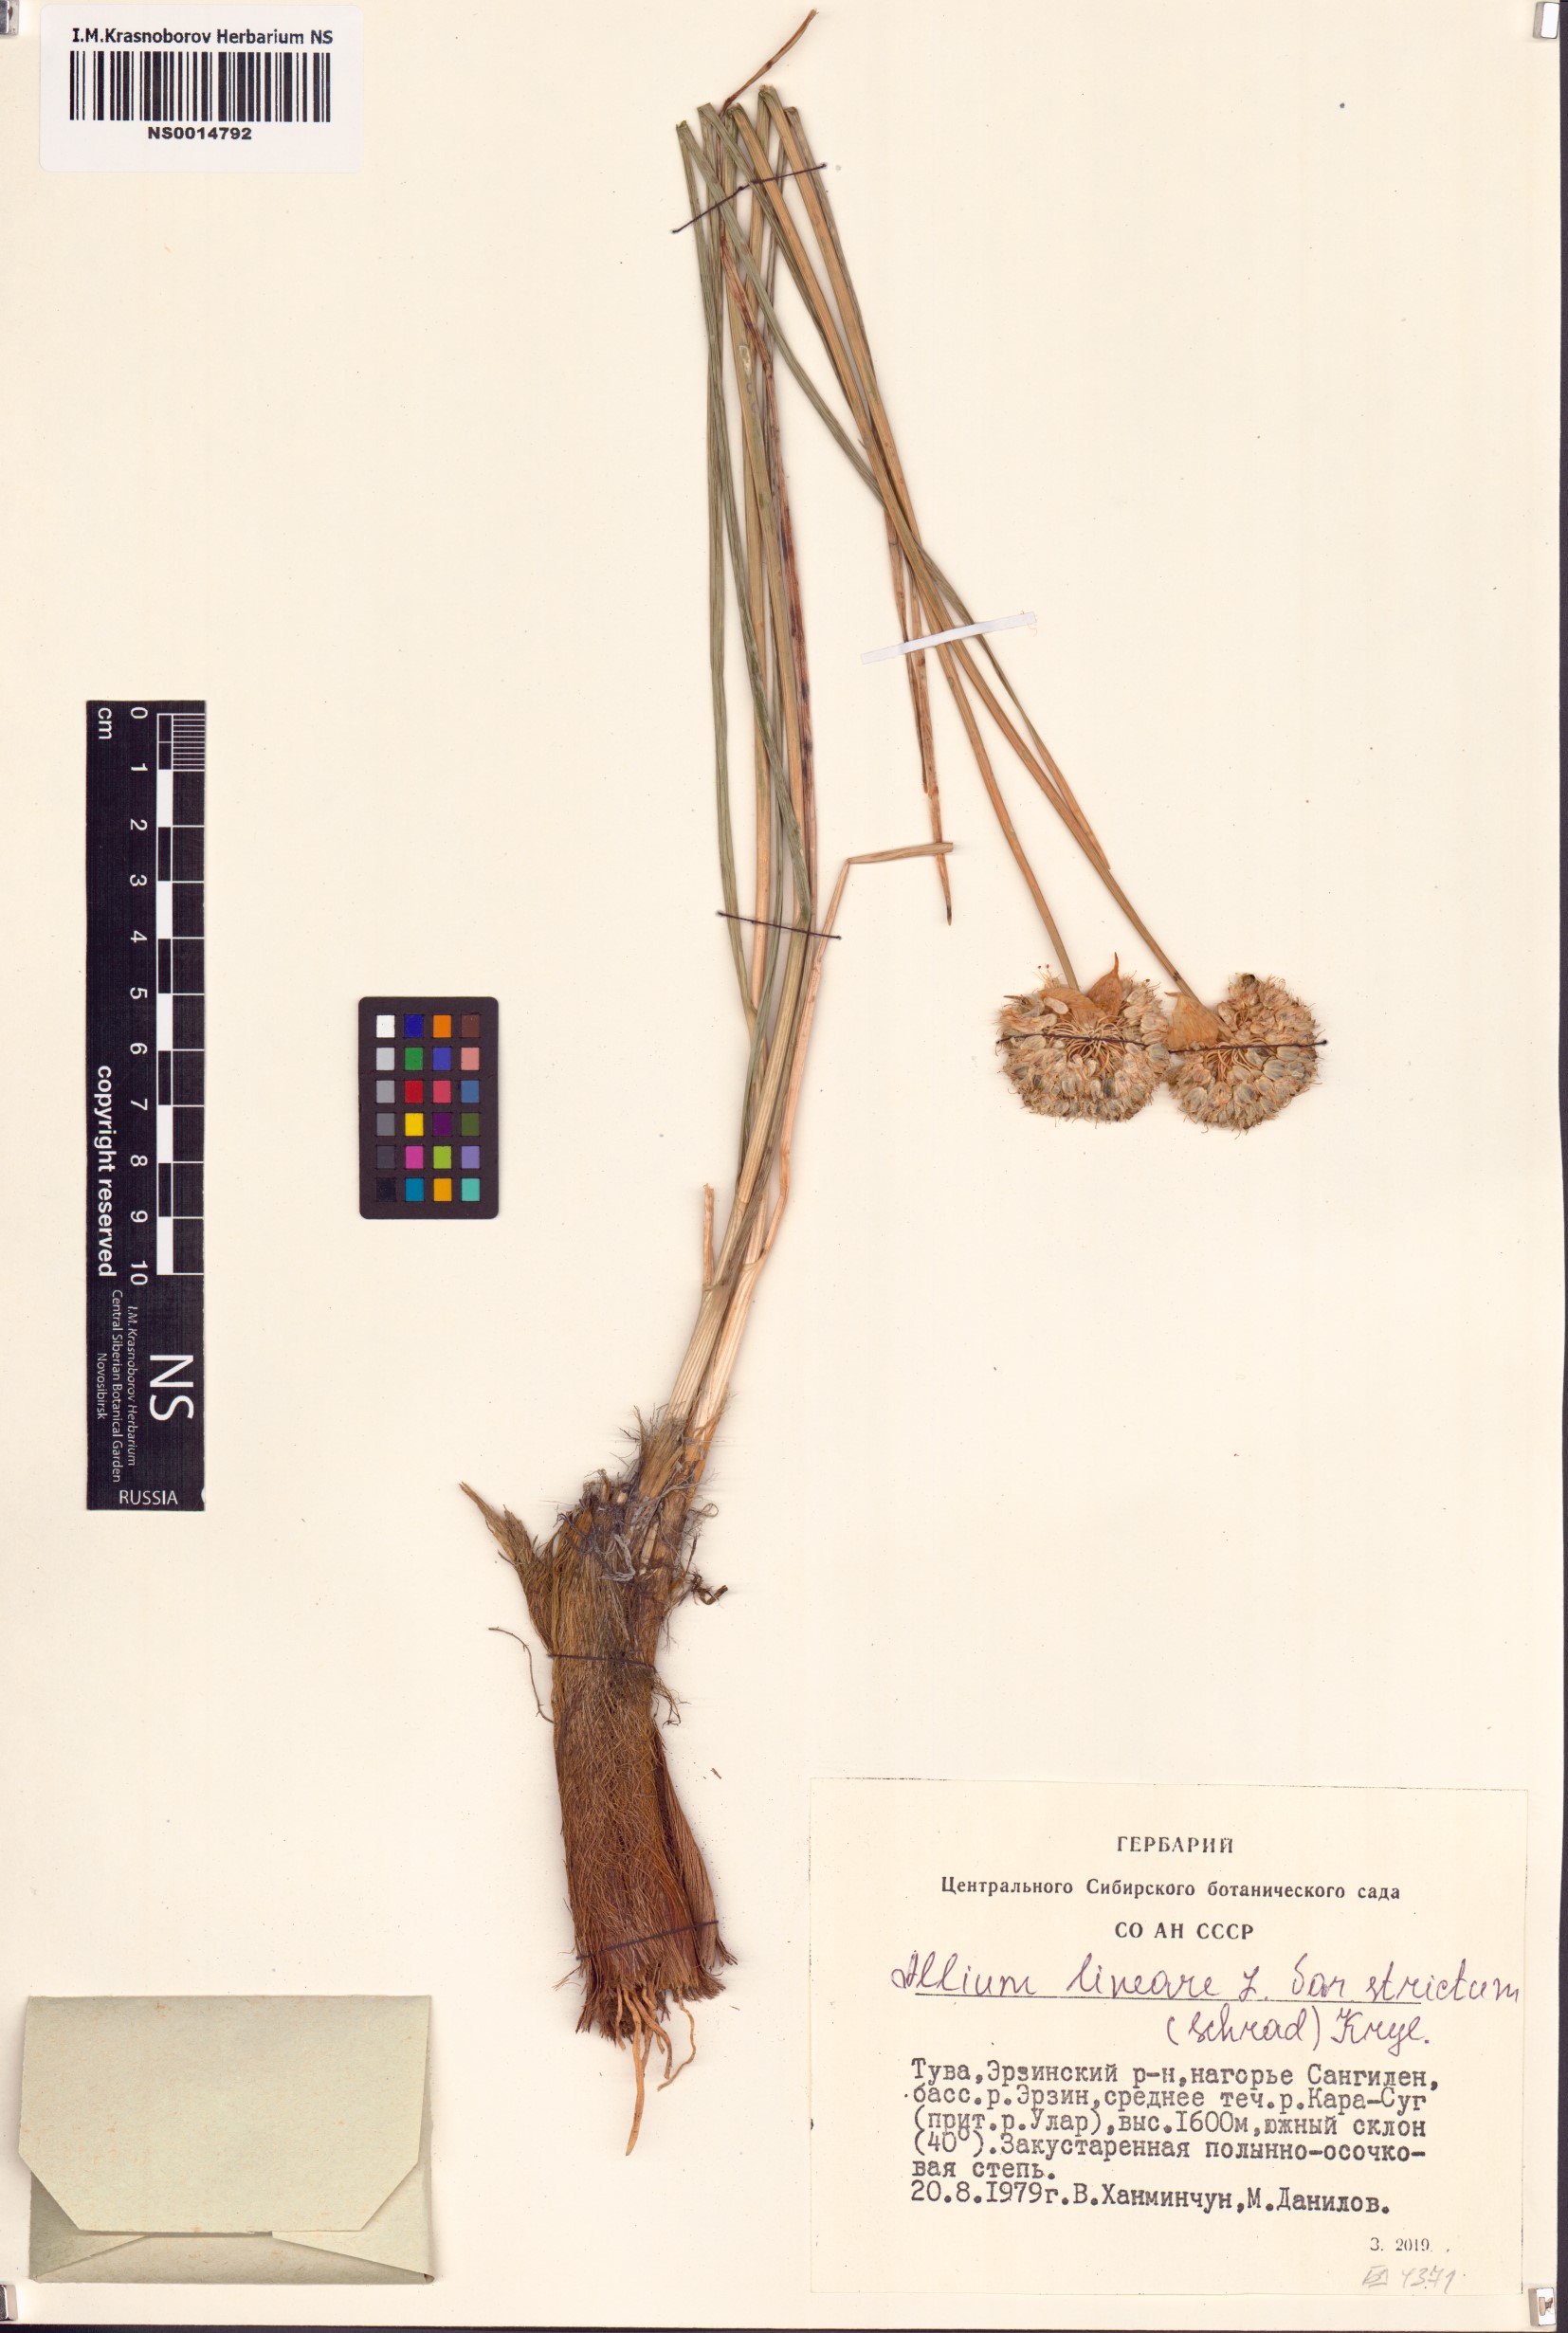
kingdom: Plantae
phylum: Tracheophyta
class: Liliopsida
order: Asparagales
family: Amaryllidaceae
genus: Allium
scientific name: Allium strictum
